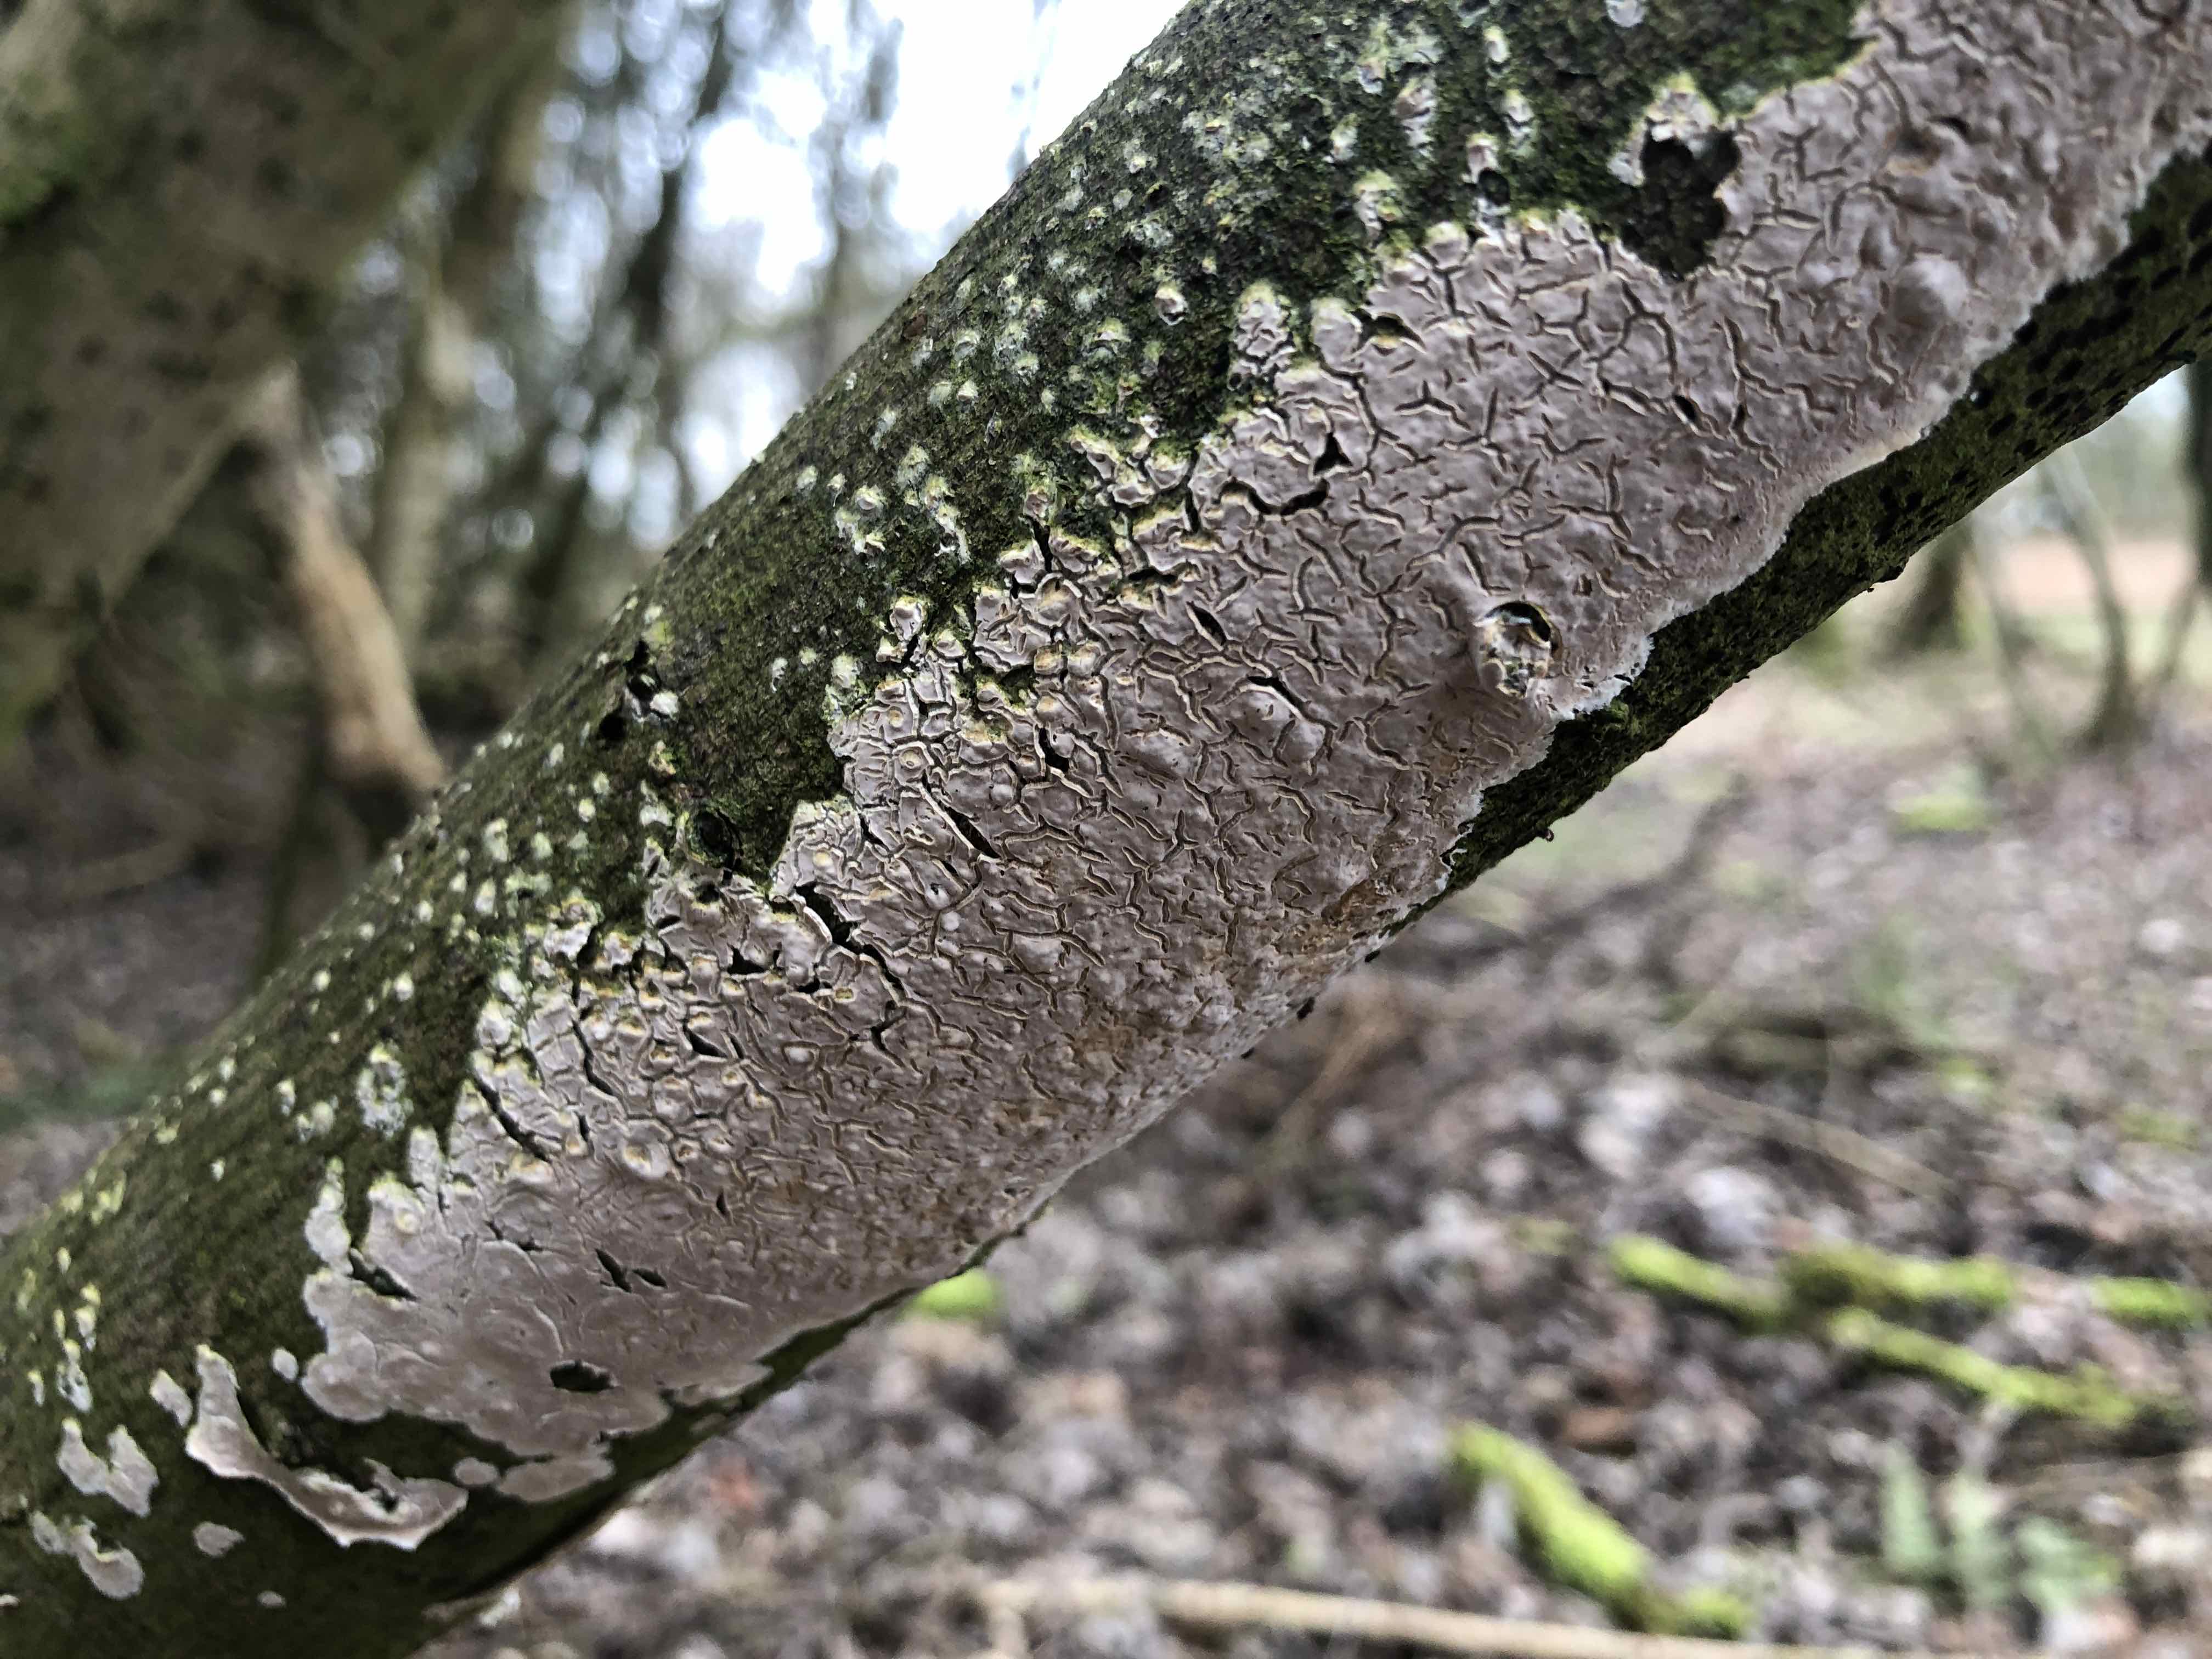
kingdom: Fungi
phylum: Basidiomycota
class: Agaricomycetes
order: Agaricales
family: Physalacriaceae
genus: Cylindrobasidium
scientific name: Cylindrobasidium evolvens
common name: sprækkehinde
